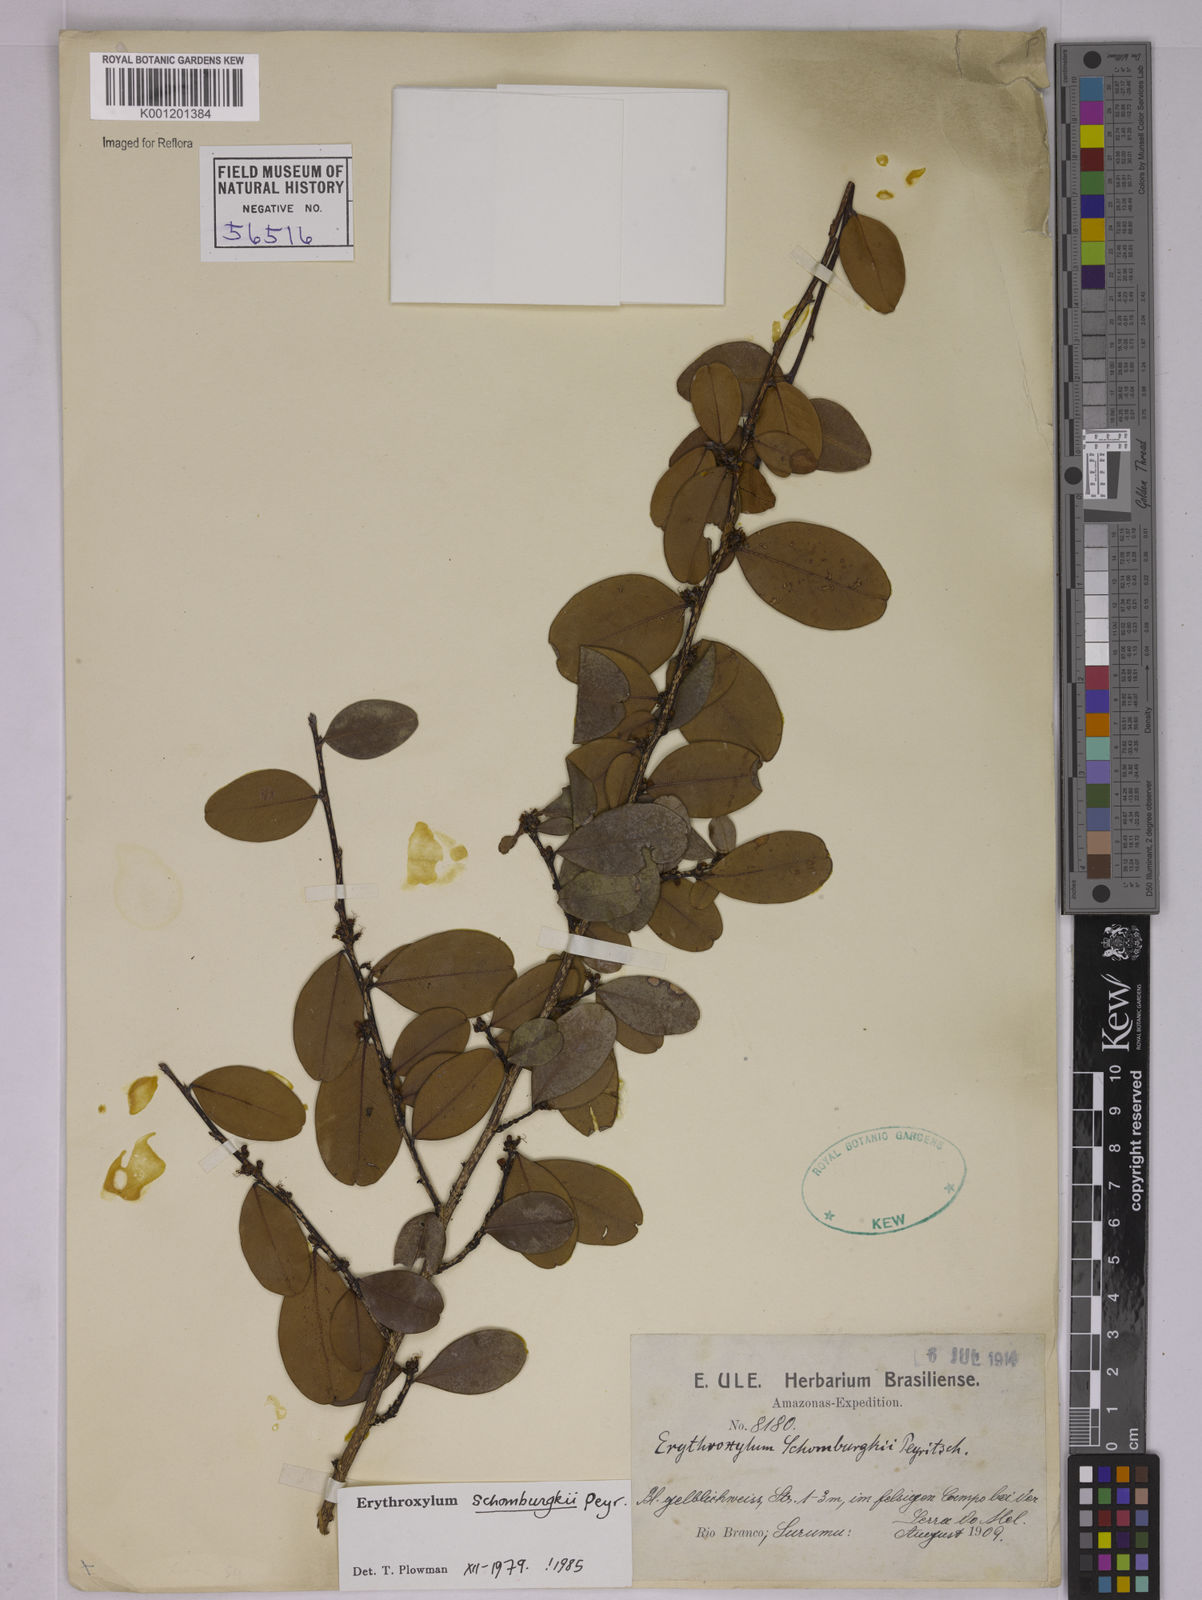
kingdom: Plantae
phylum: Tracheophyta
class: Magnoliopsida
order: Malpighiales
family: Erythroxylaceae
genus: Erythroxylum
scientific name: Erythroxylum schomburgkii
